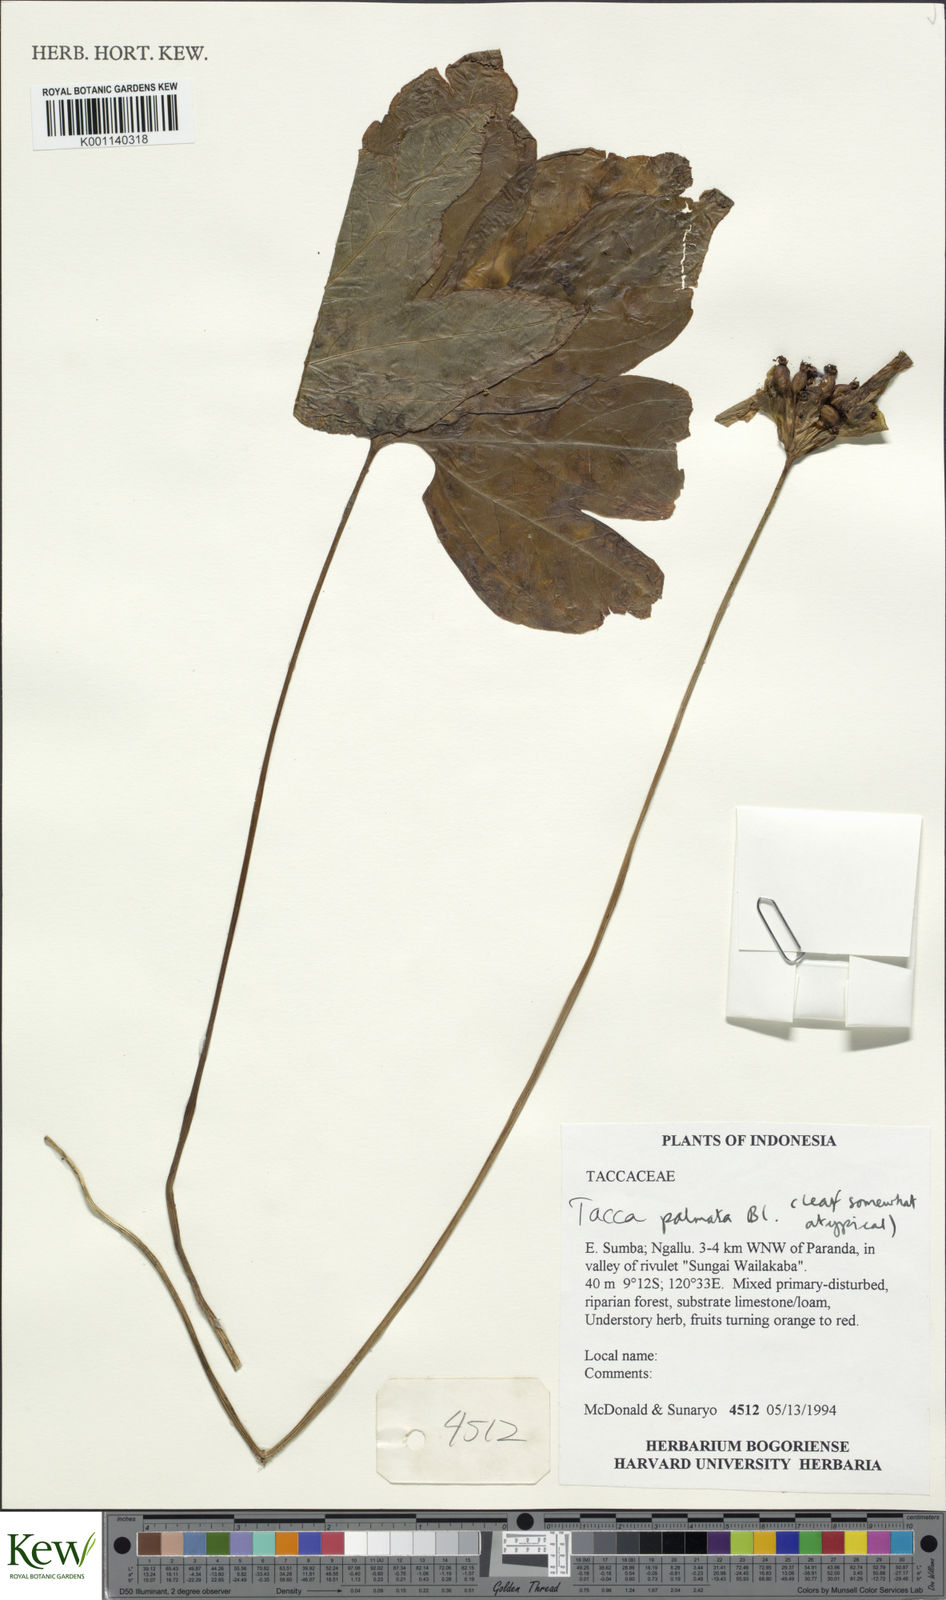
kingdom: Plantae
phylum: Tracheophyta
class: Liliopsida
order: Dioscoreales
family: Dioscoreaceae
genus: Tacca
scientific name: Tacca palmata
